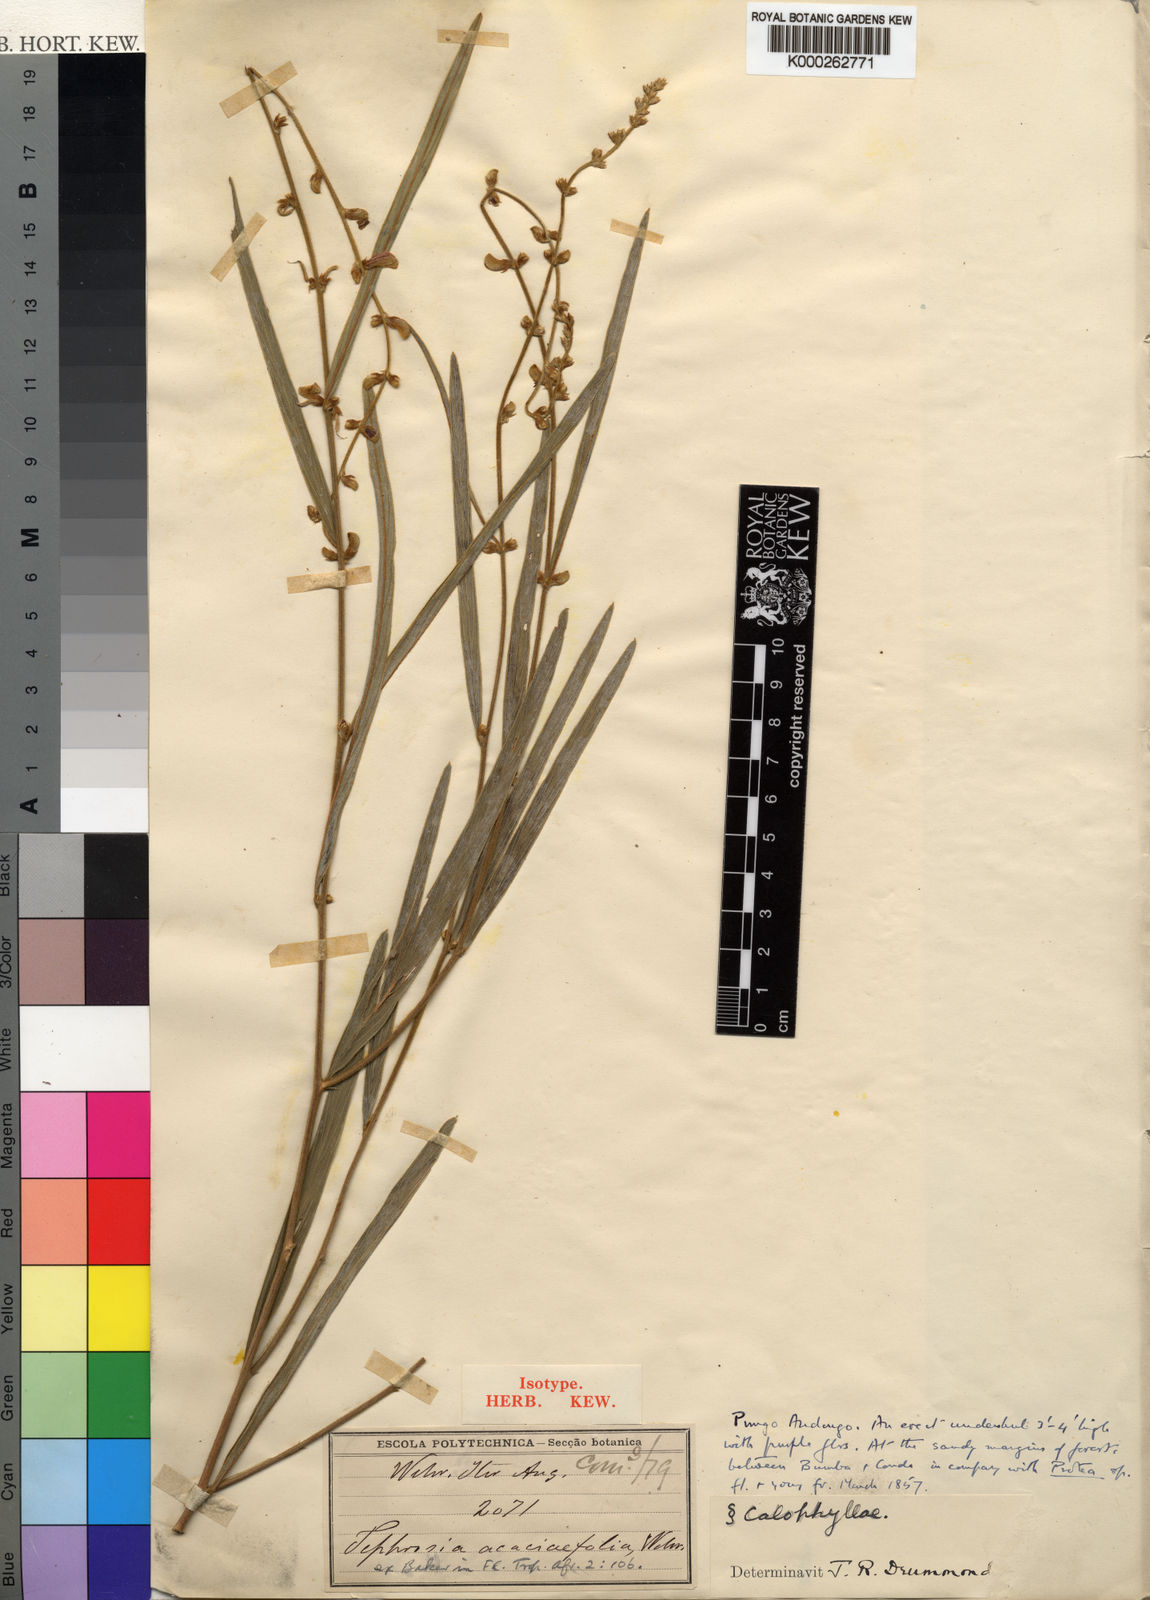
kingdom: Plantae
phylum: Tracheophyta
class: Magnoliopsida
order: Fabales
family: Fabaceae
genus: Tephrosia
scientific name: Tephrosia
